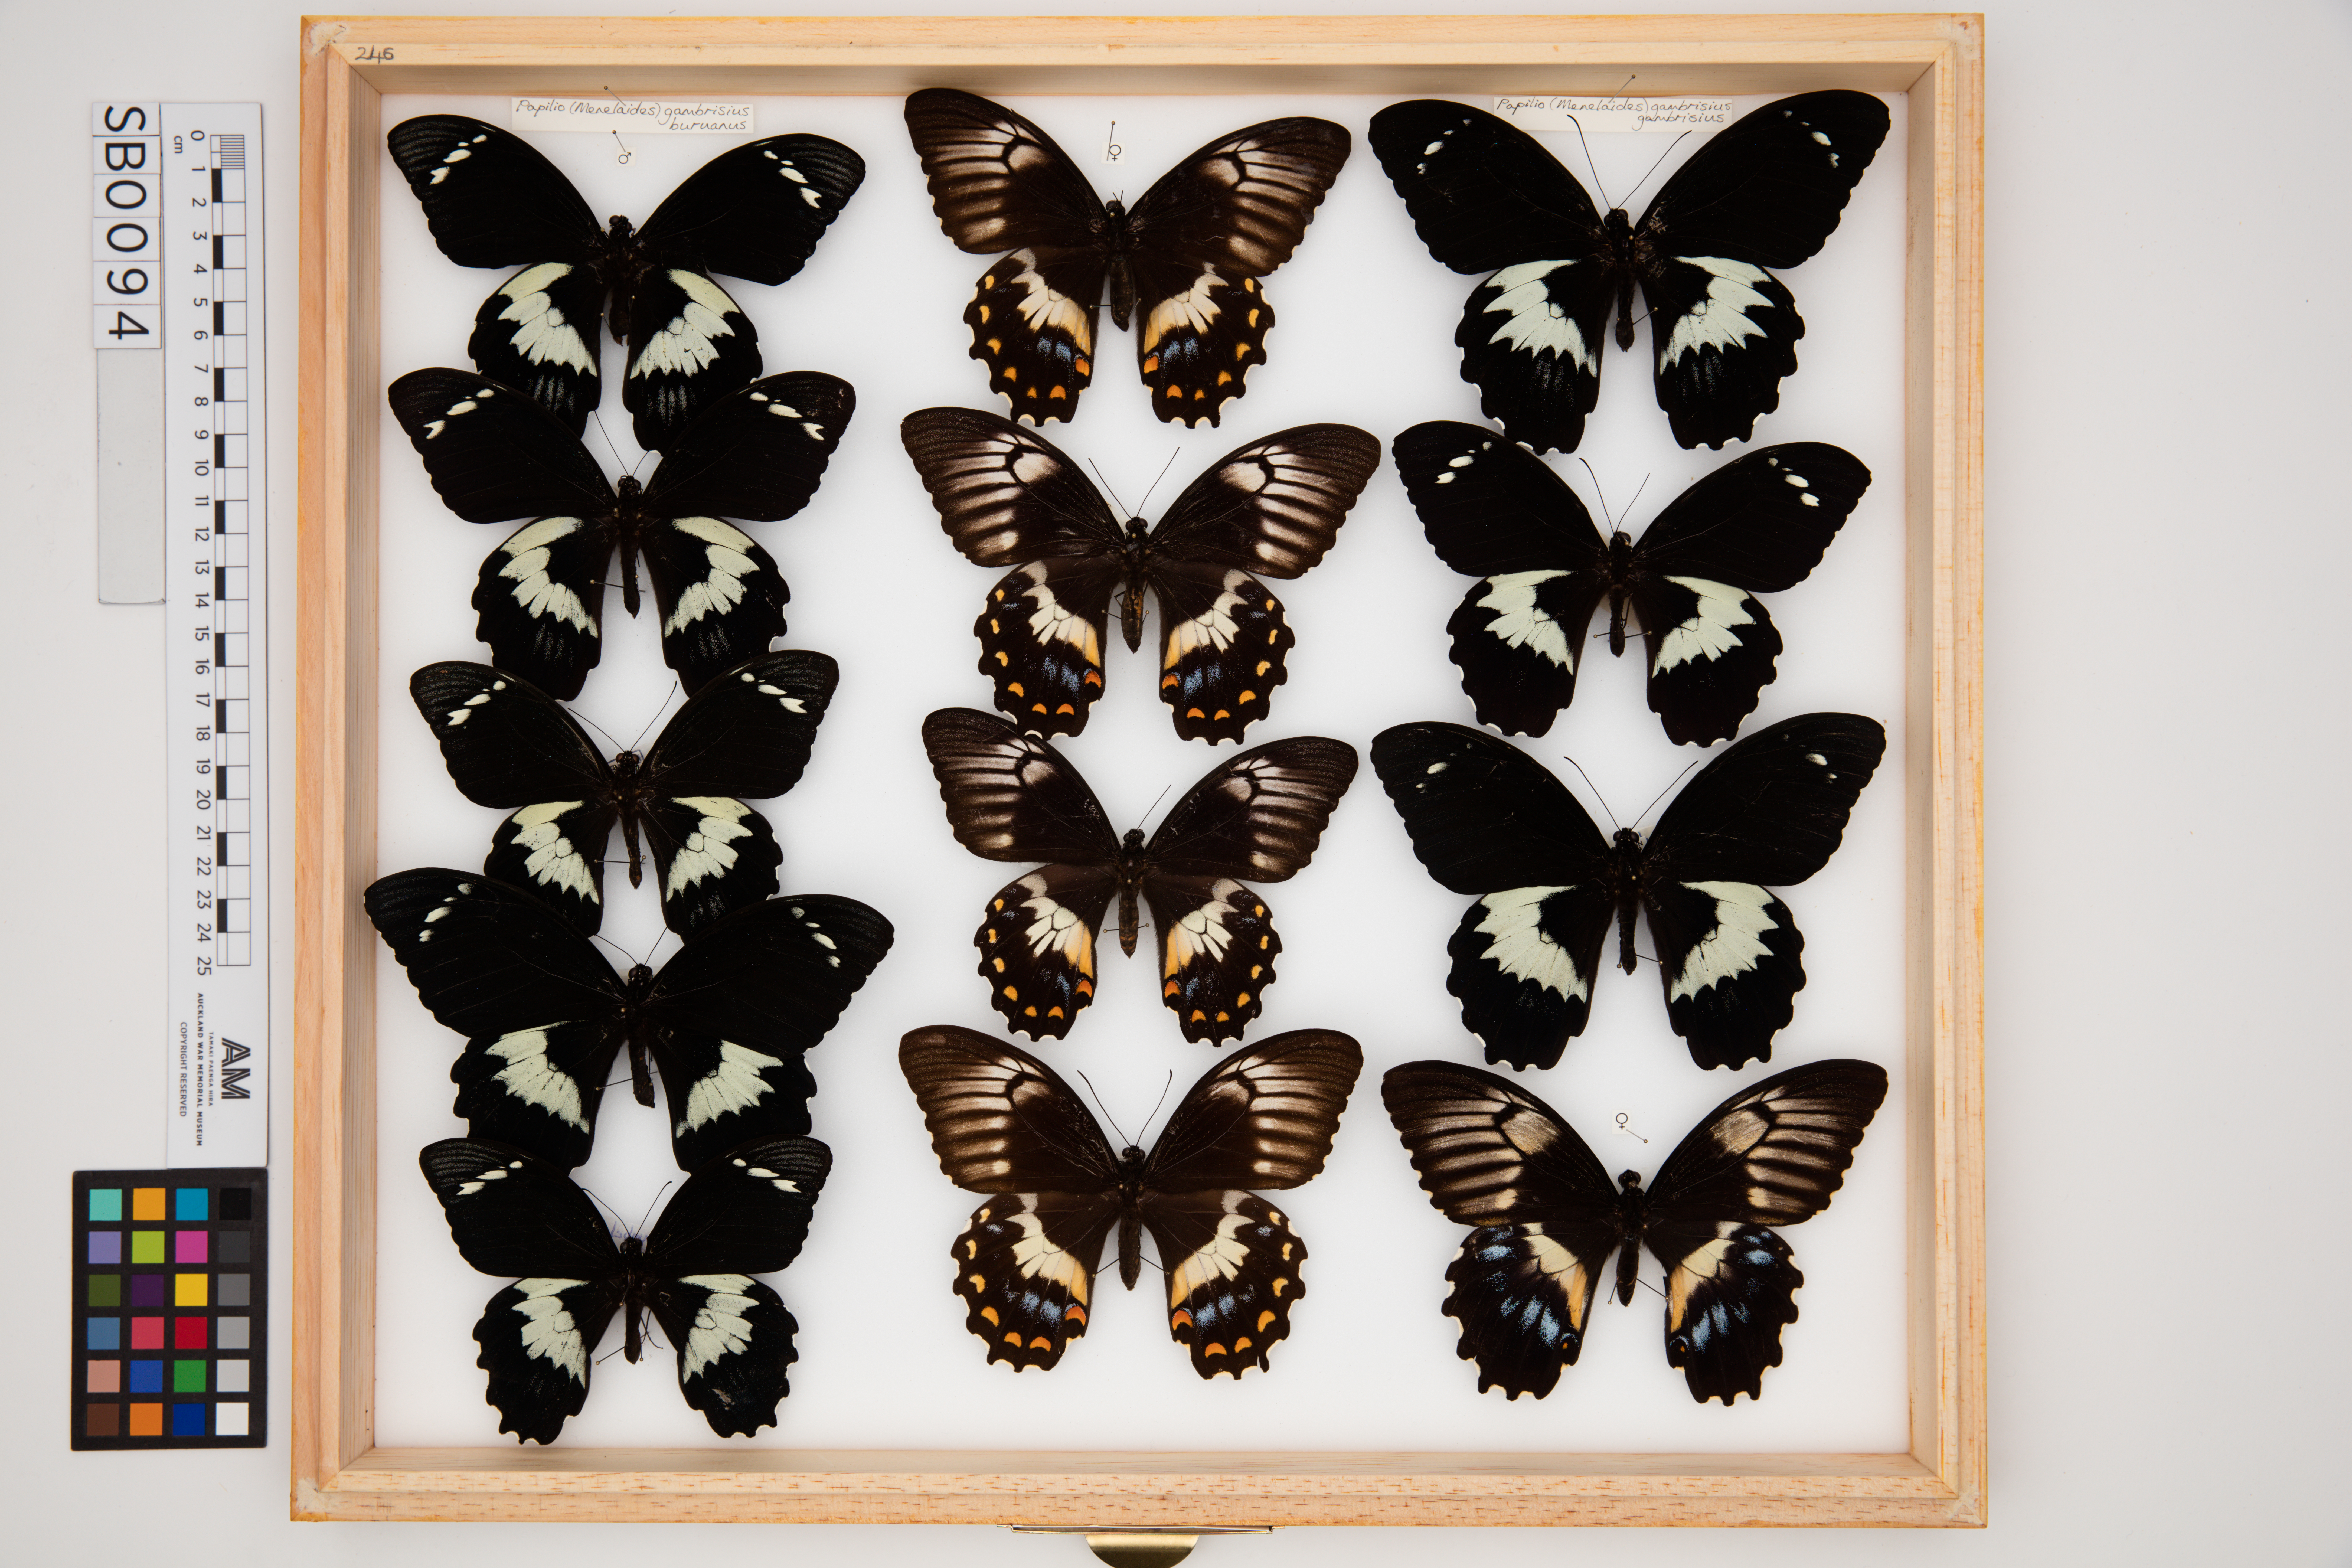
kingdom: Animalia
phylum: Arthropoda
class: Insecta
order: Lepidoptera
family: Papilionidae
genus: Papilio
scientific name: Papilio gambrisius
